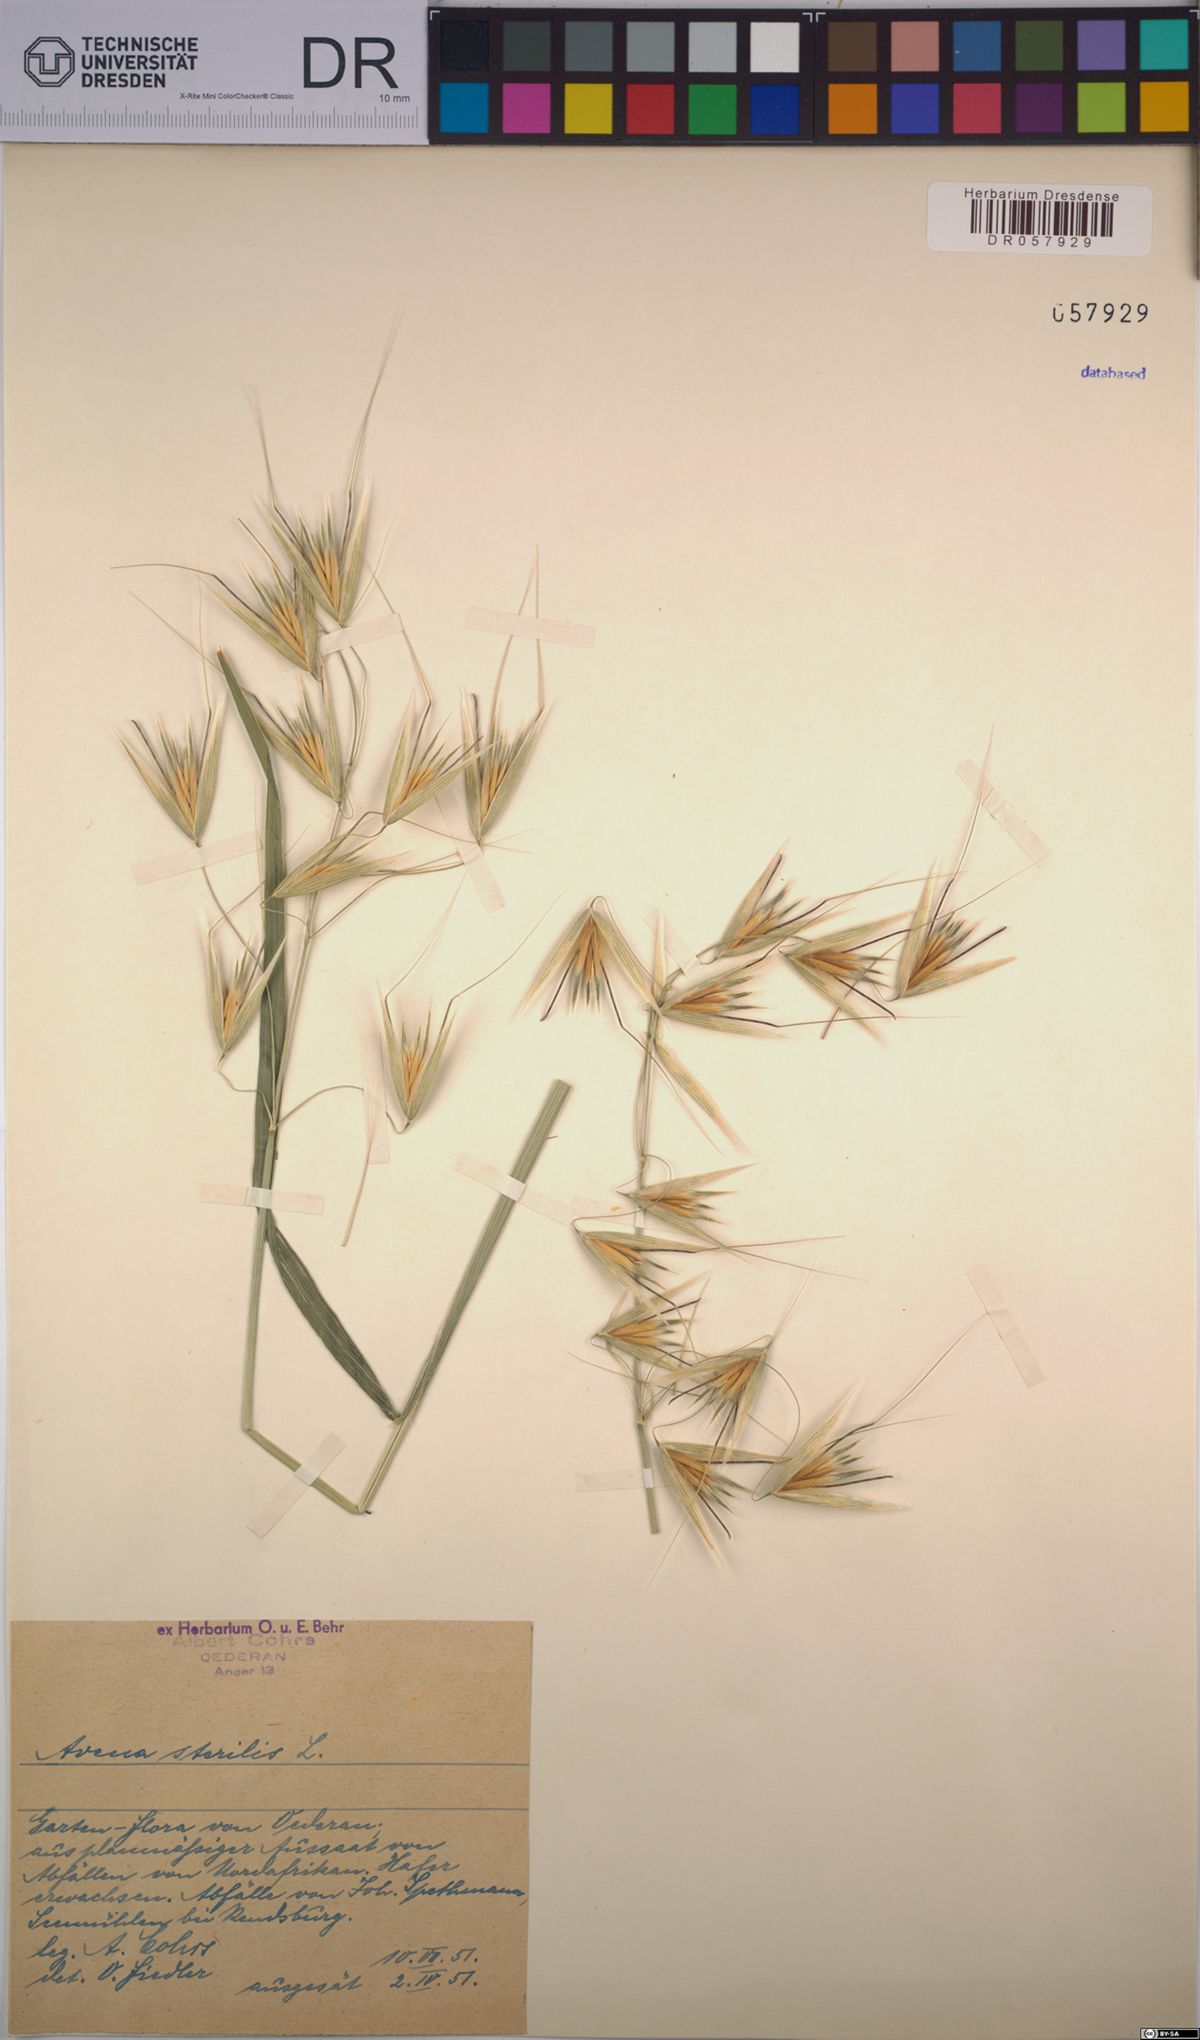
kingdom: Plantae
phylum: Tracheophyta
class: Liliopsida
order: Poales
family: Poaceae
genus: Avena
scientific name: Avena sterilis
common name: Animated oat
